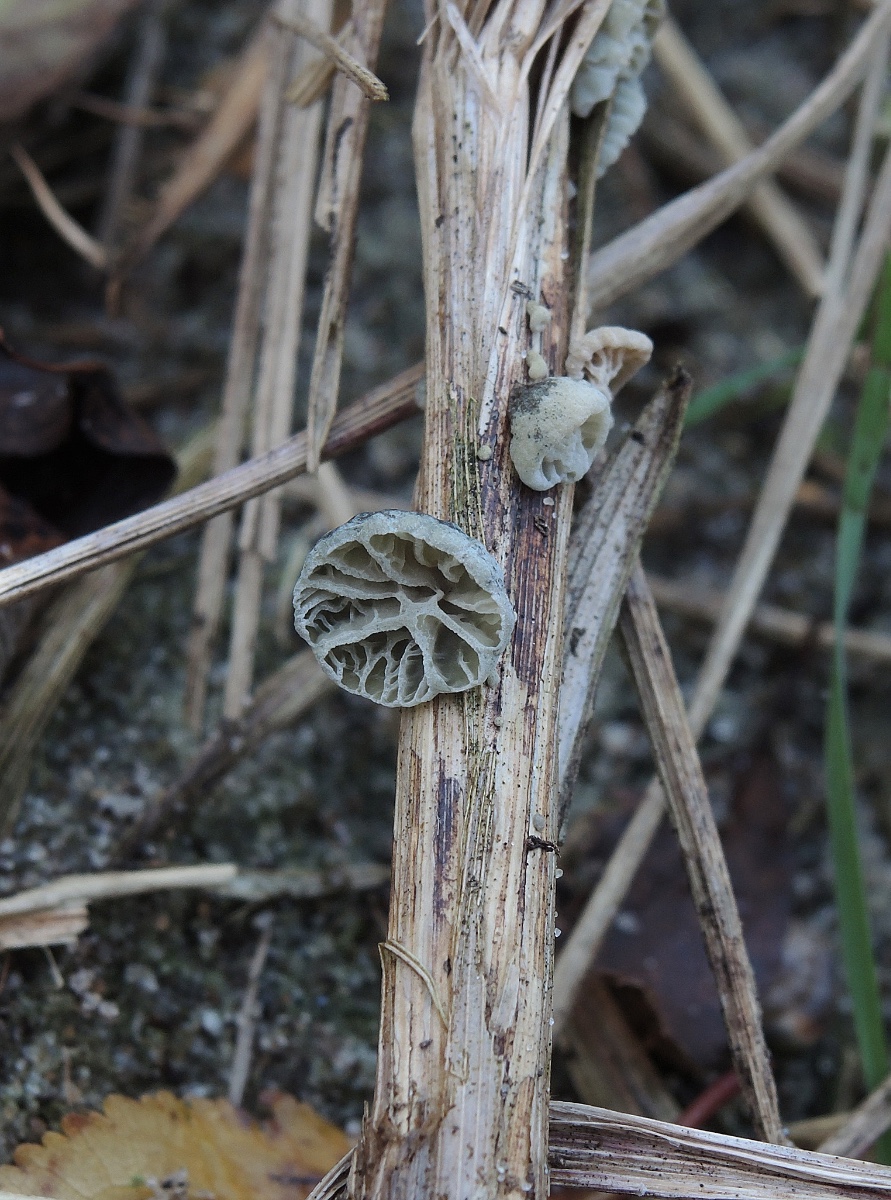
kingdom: Fungi
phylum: Basidiomycota
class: Agaricomycetes
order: Agaricales
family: Marasmiaceae
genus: Campanella
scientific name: Campanella caesia
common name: bruskøre
